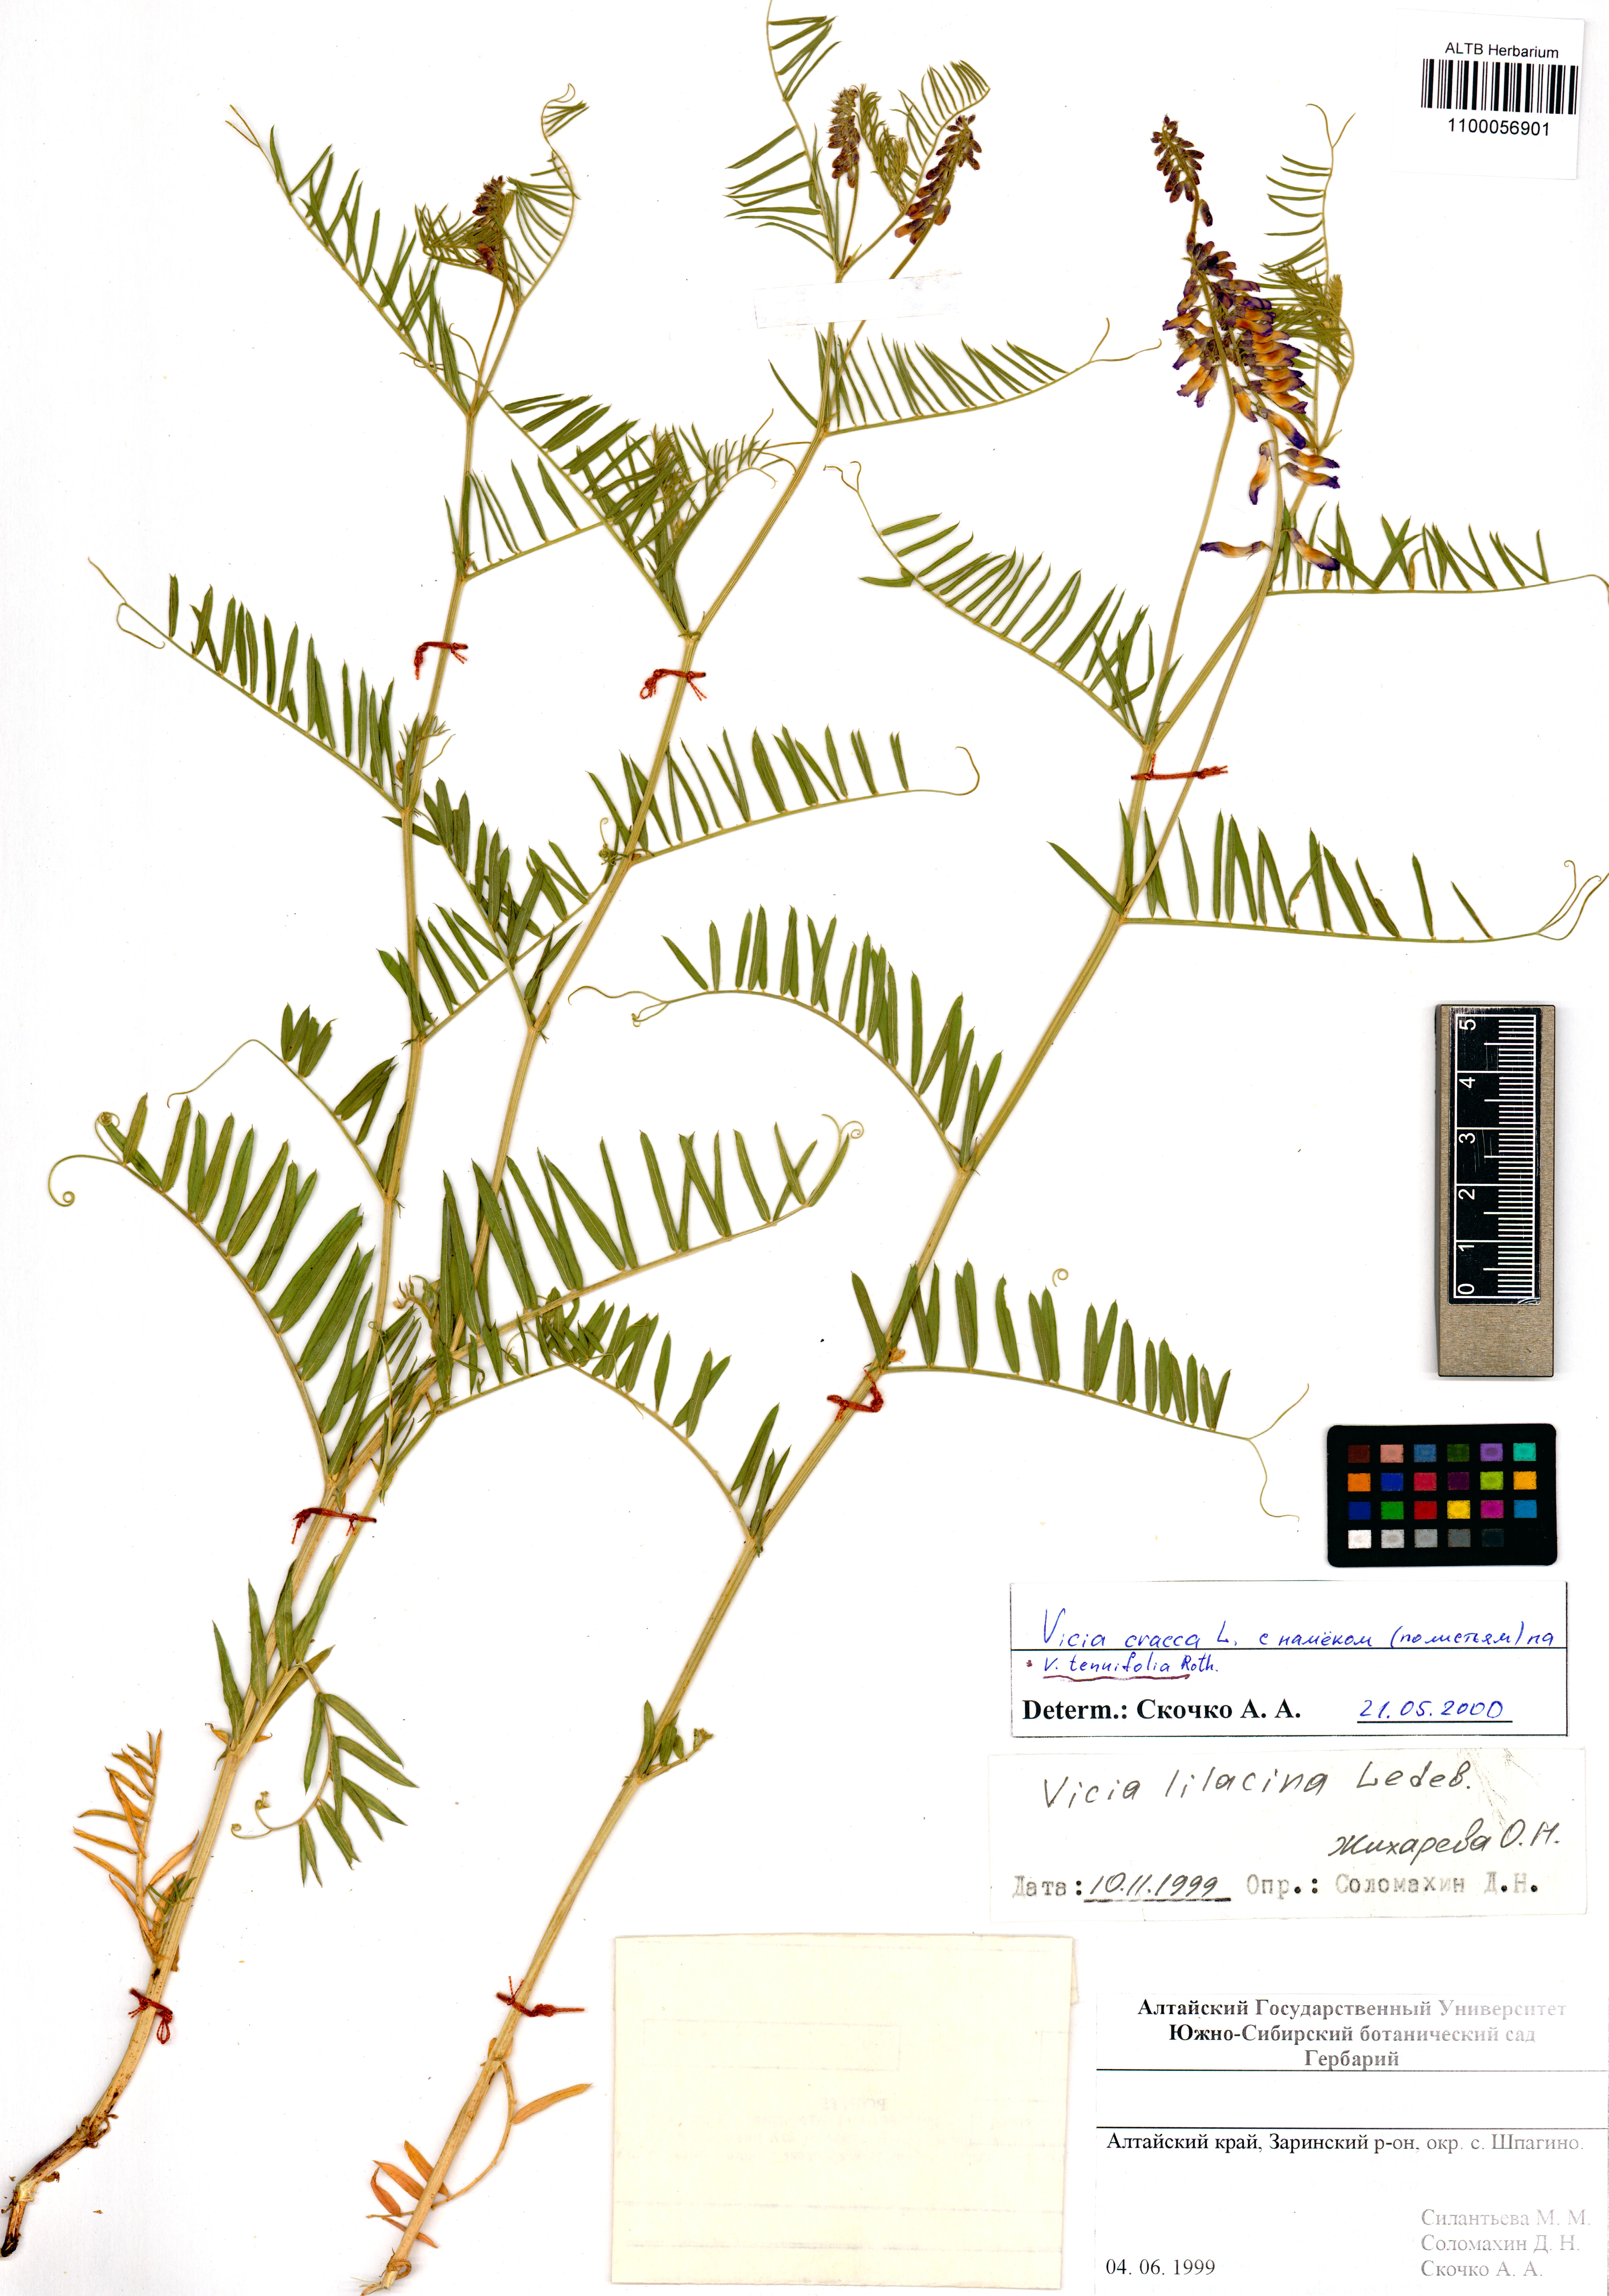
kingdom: Plantae
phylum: Tracheophyta
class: Magnoliopsida
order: Fabales
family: Fabaceae
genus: Vicia
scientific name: Vicia tenuifolia
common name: Fine-leaved vetch
